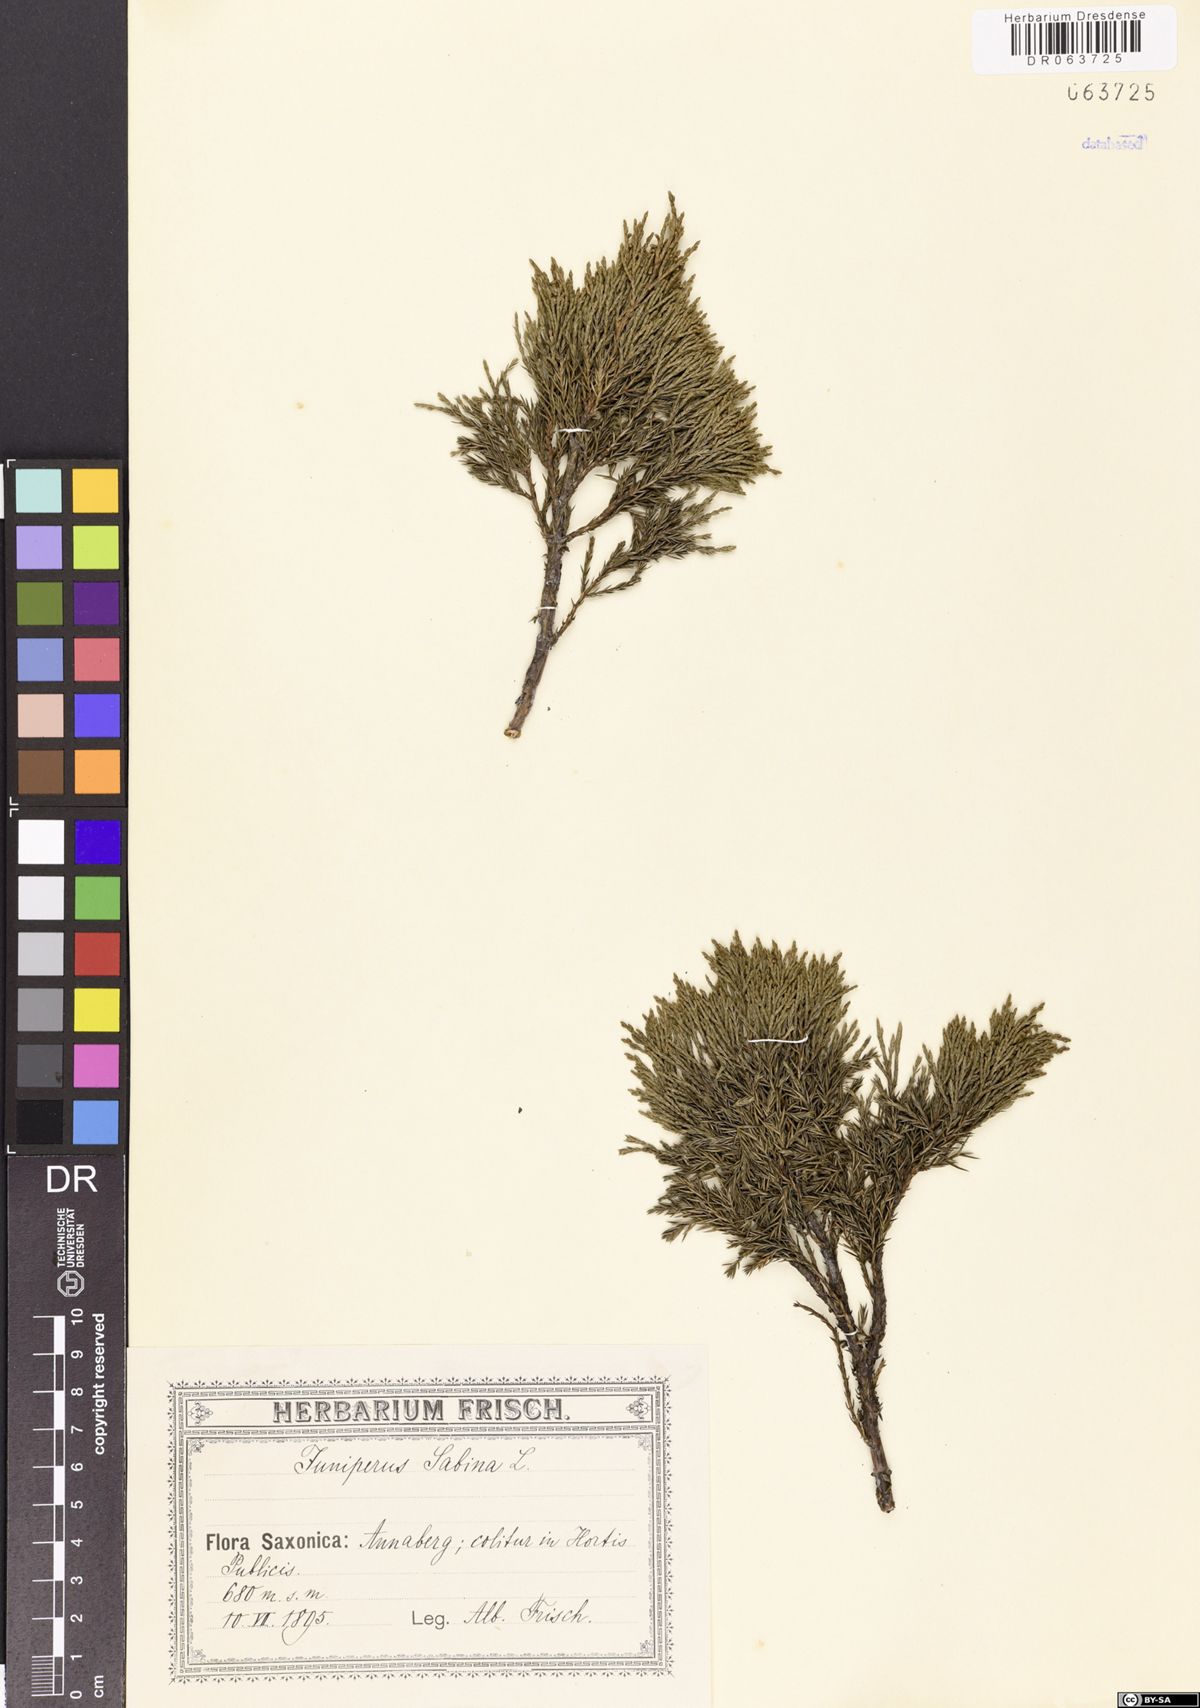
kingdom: Plantae
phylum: Tracheophyta
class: Pinopsida
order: Pinales
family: Cupressaceae
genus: Juniperus
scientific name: Juniperus sabina
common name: Savin
